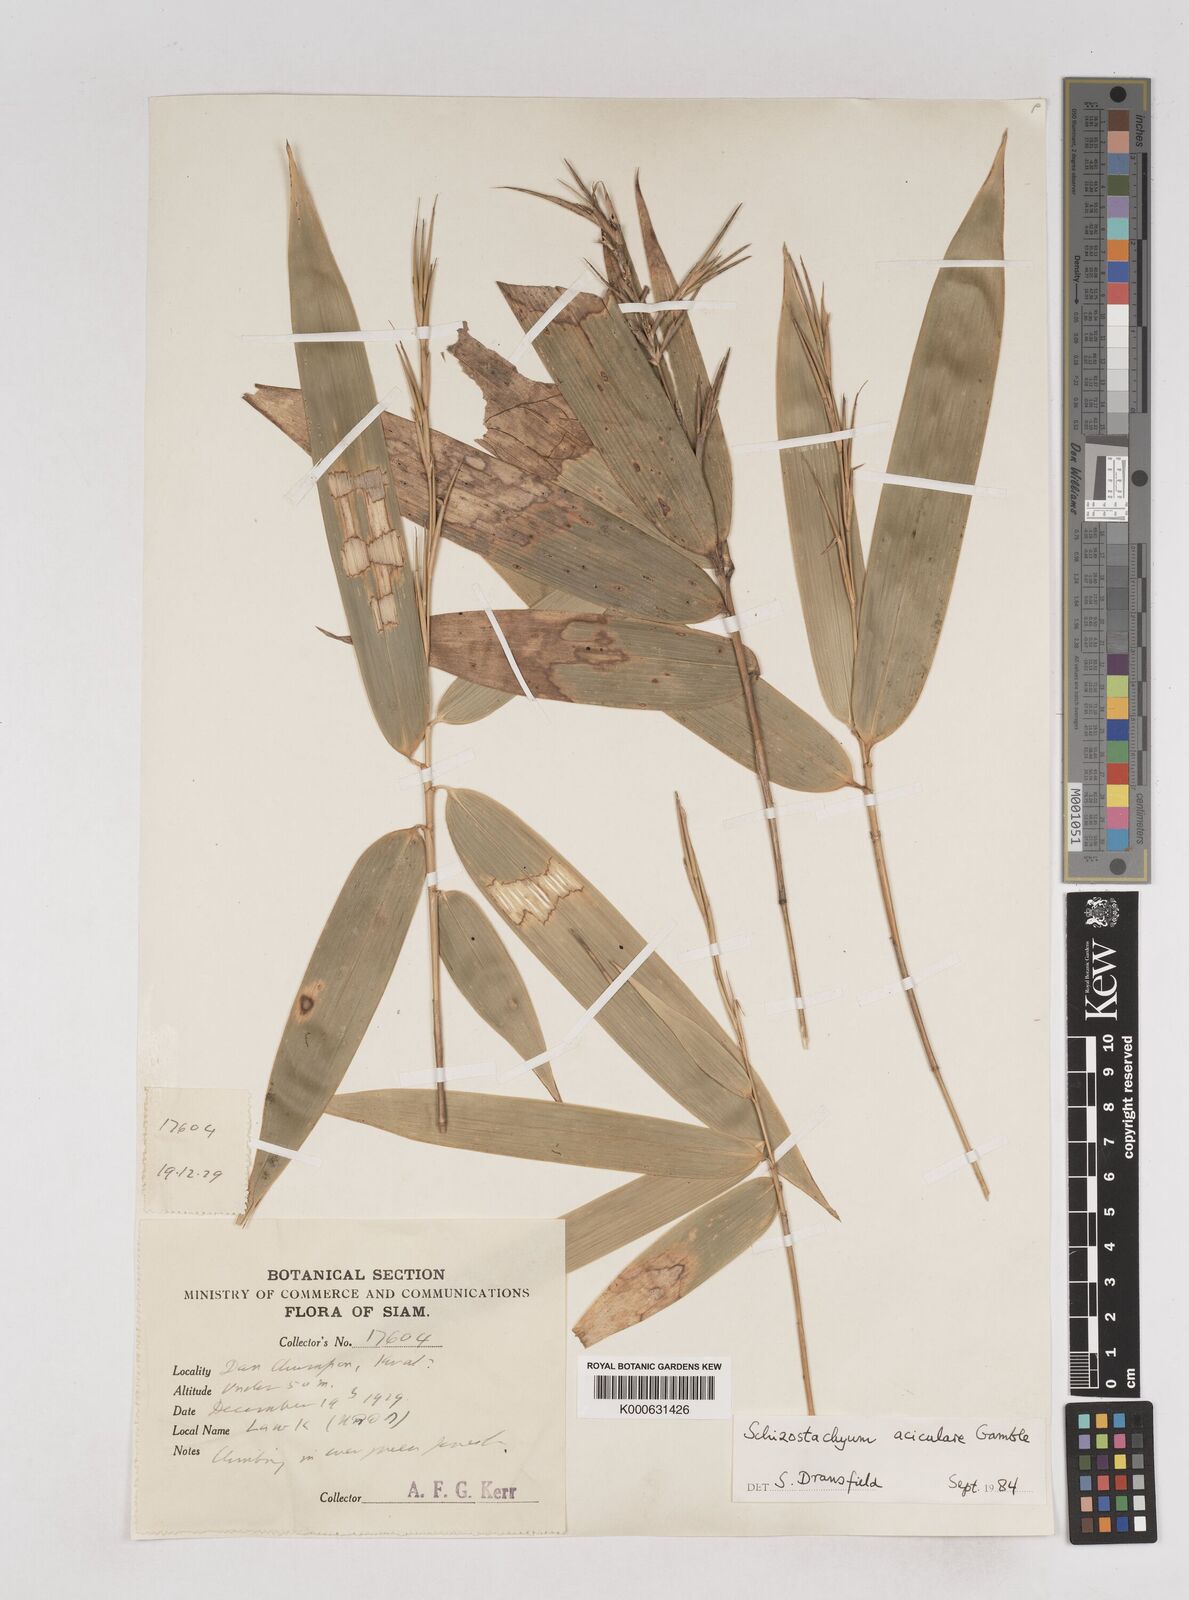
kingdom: Plantae
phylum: Tracheophyta
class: Liliopsida
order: Poales
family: Poaceae
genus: Schizostachyum
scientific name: Schizostachyum aciculare
